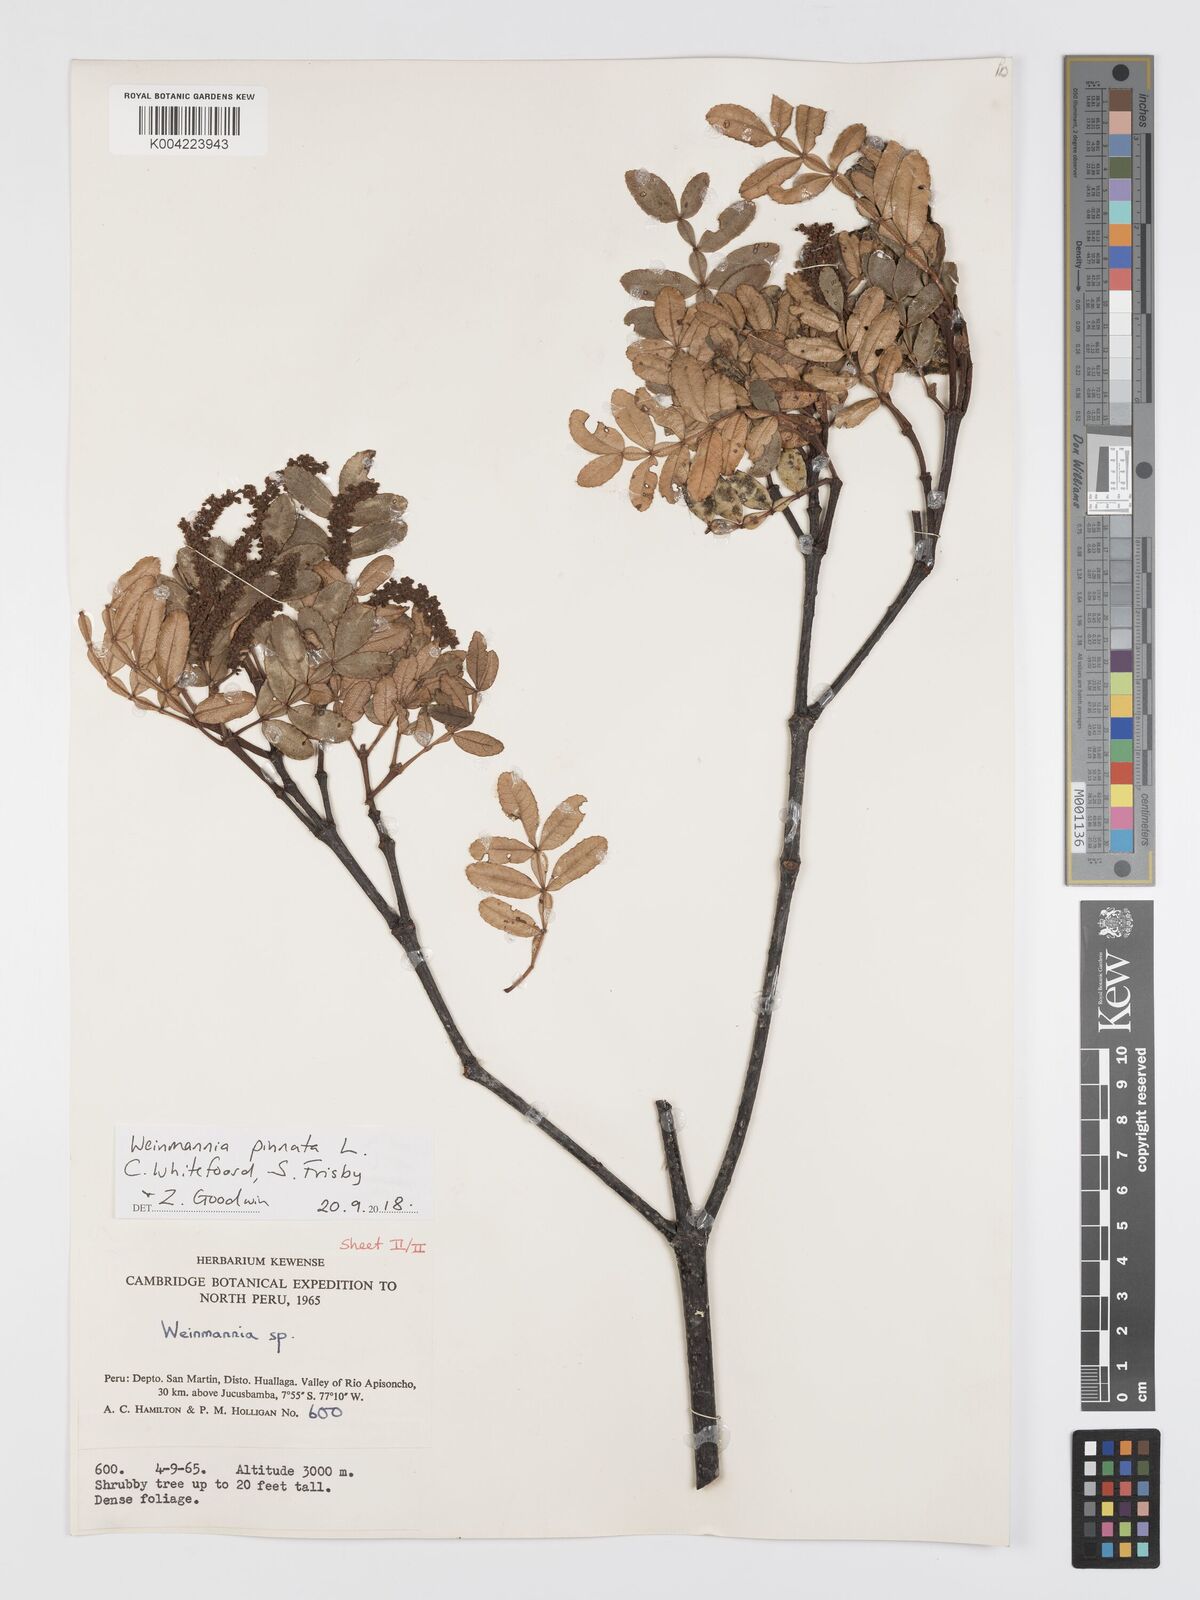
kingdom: Plantae
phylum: Tracheophyta
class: Magnoliopsida
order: Oxalidales
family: Cunoniaceae
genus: Weinmannia
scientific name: Weinmannia pinnata
